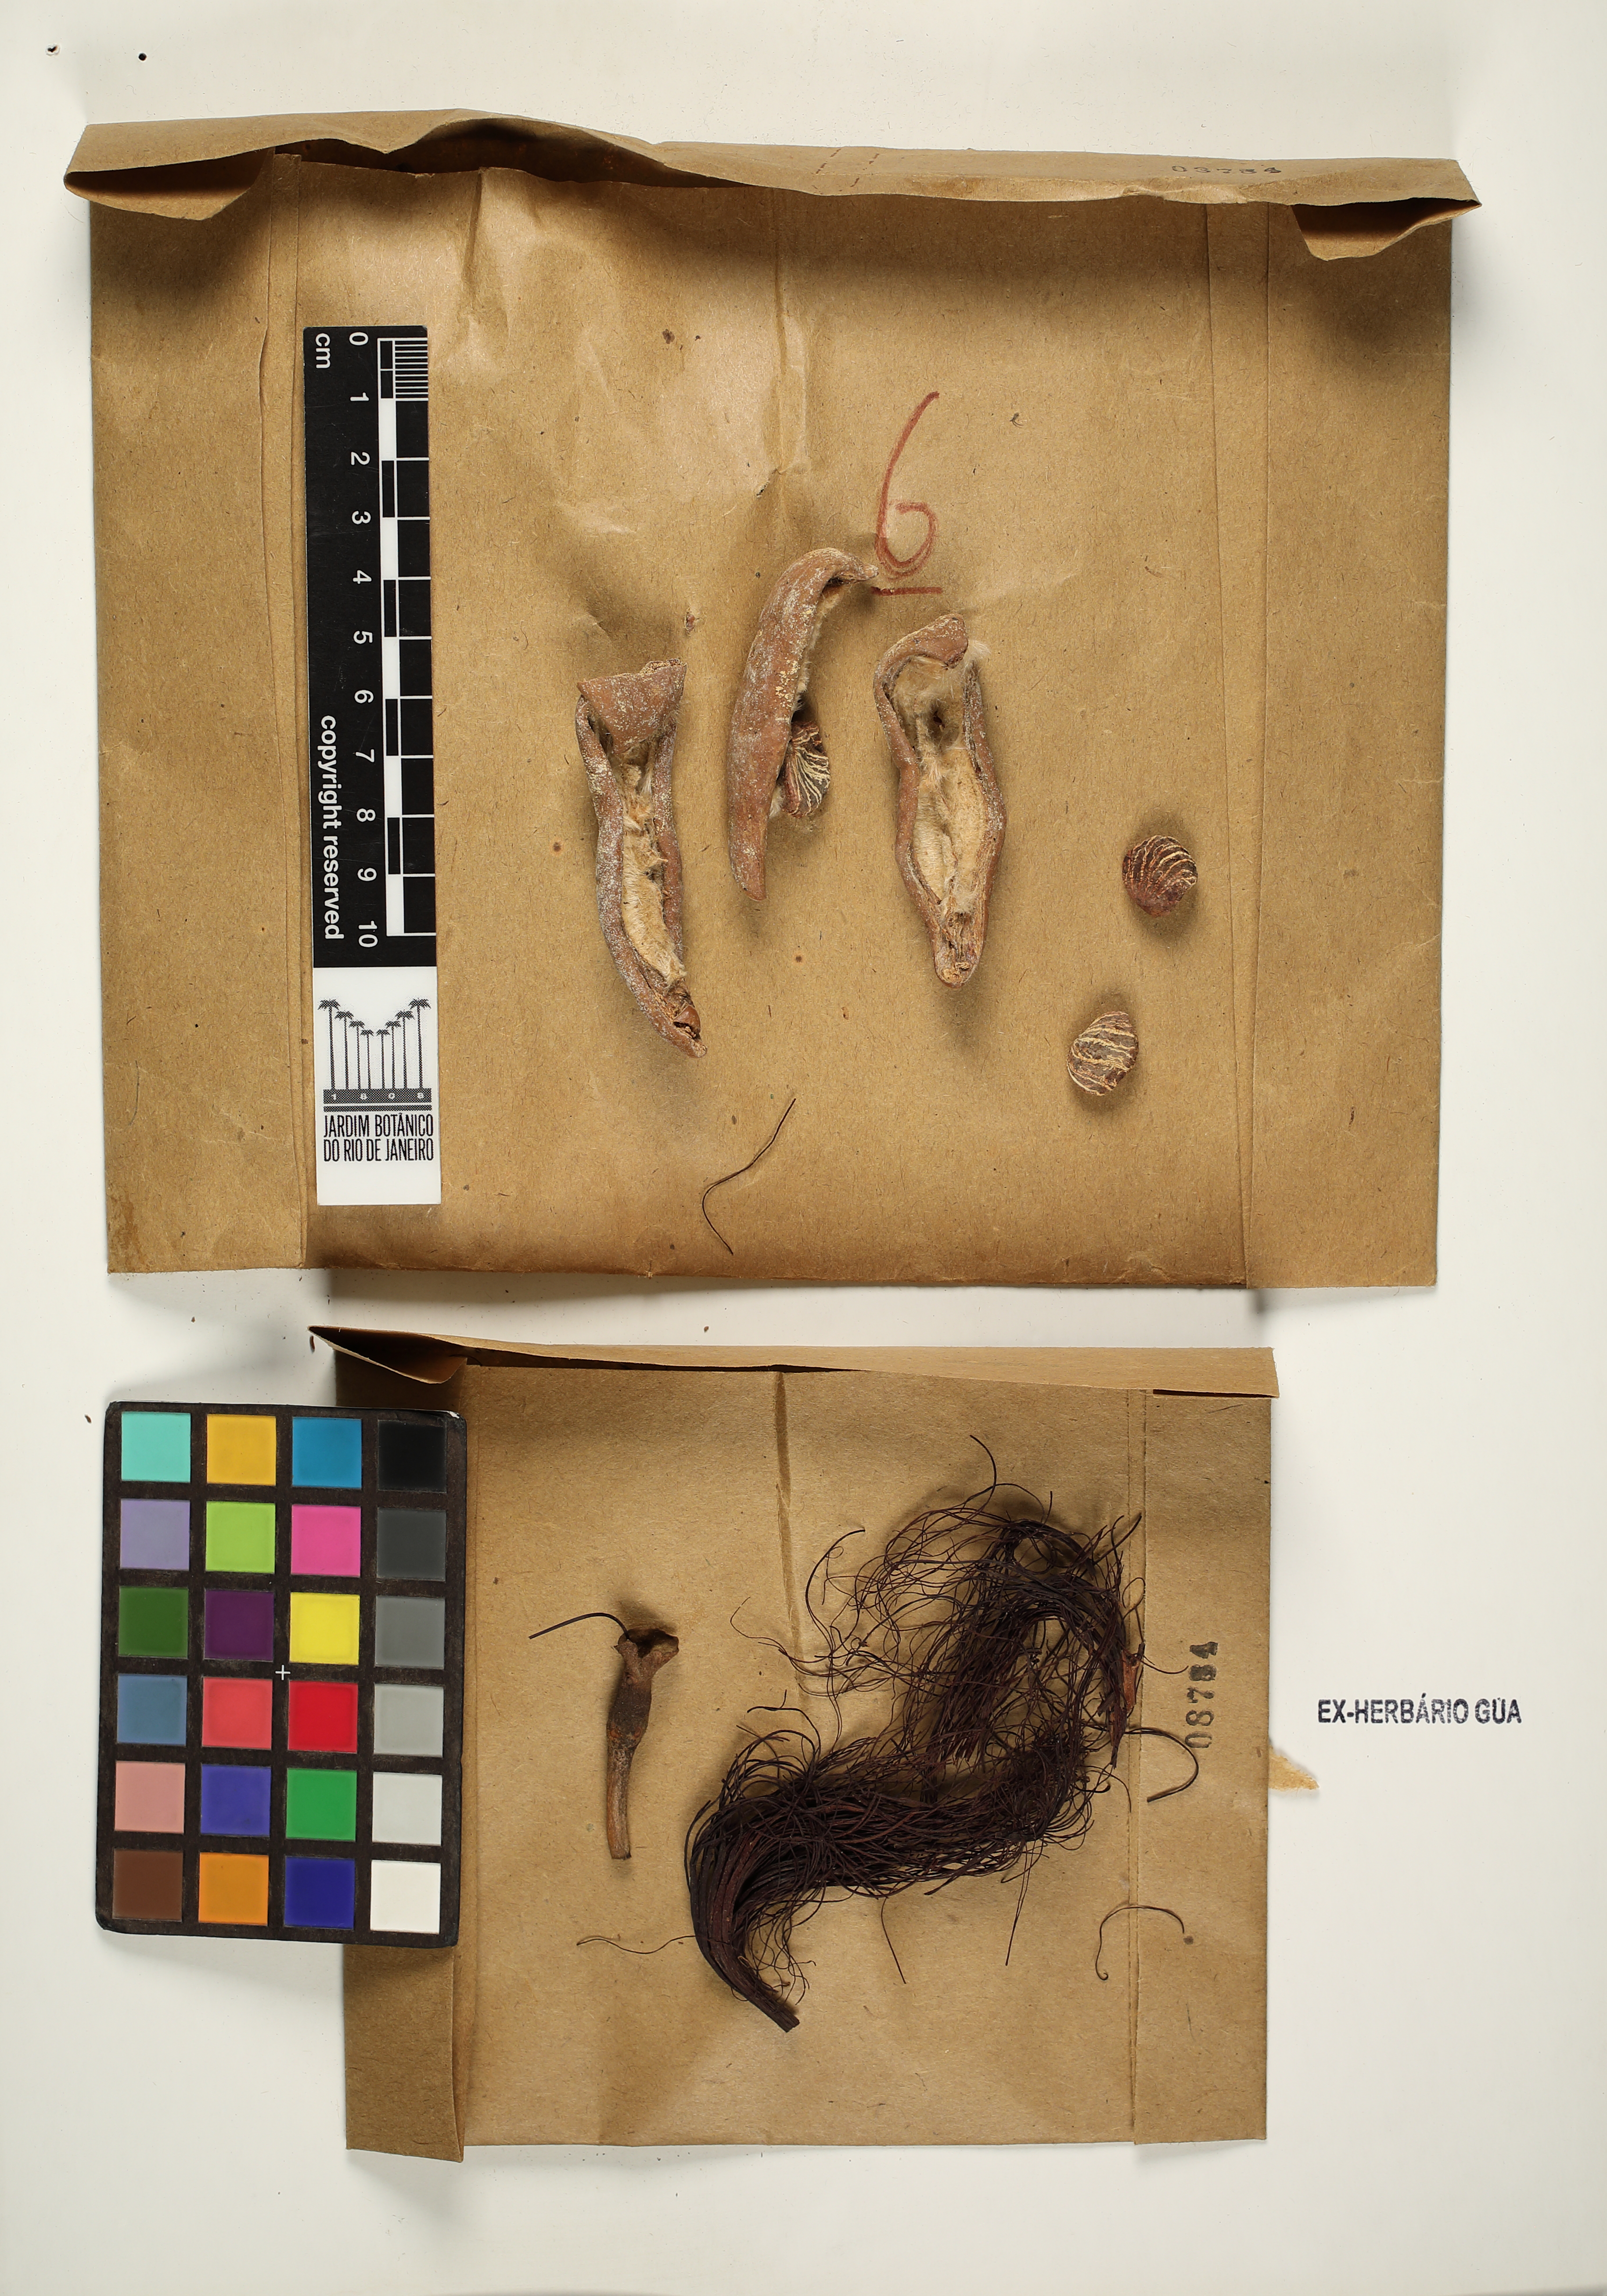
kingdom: Plantae
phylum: Tracheophyta
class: Magnoliopsida
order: Malvales
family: Malvaceae
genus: Pachira
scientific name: Pachira glabra
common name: Moneytree
